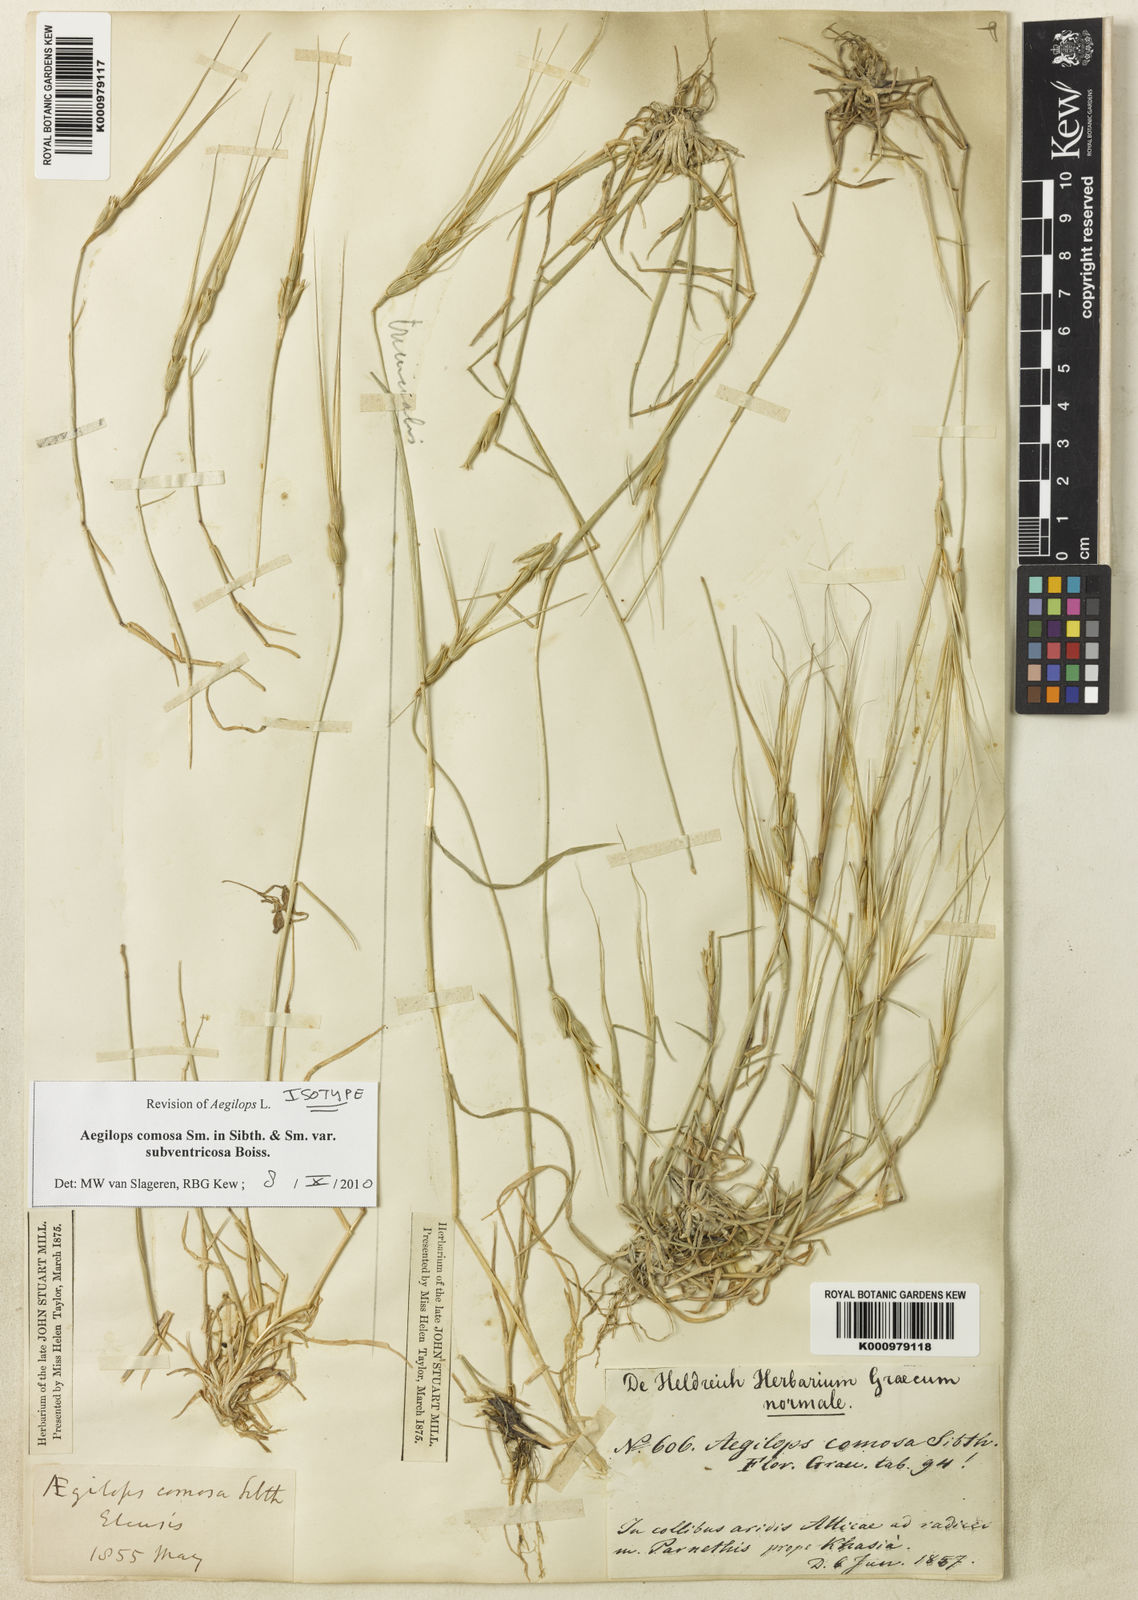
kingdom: Plantae
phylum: Tracheophyta
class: Liliopsida
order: Poales
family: Poaceae
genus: Aegilops
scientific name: Aegilops comosa
